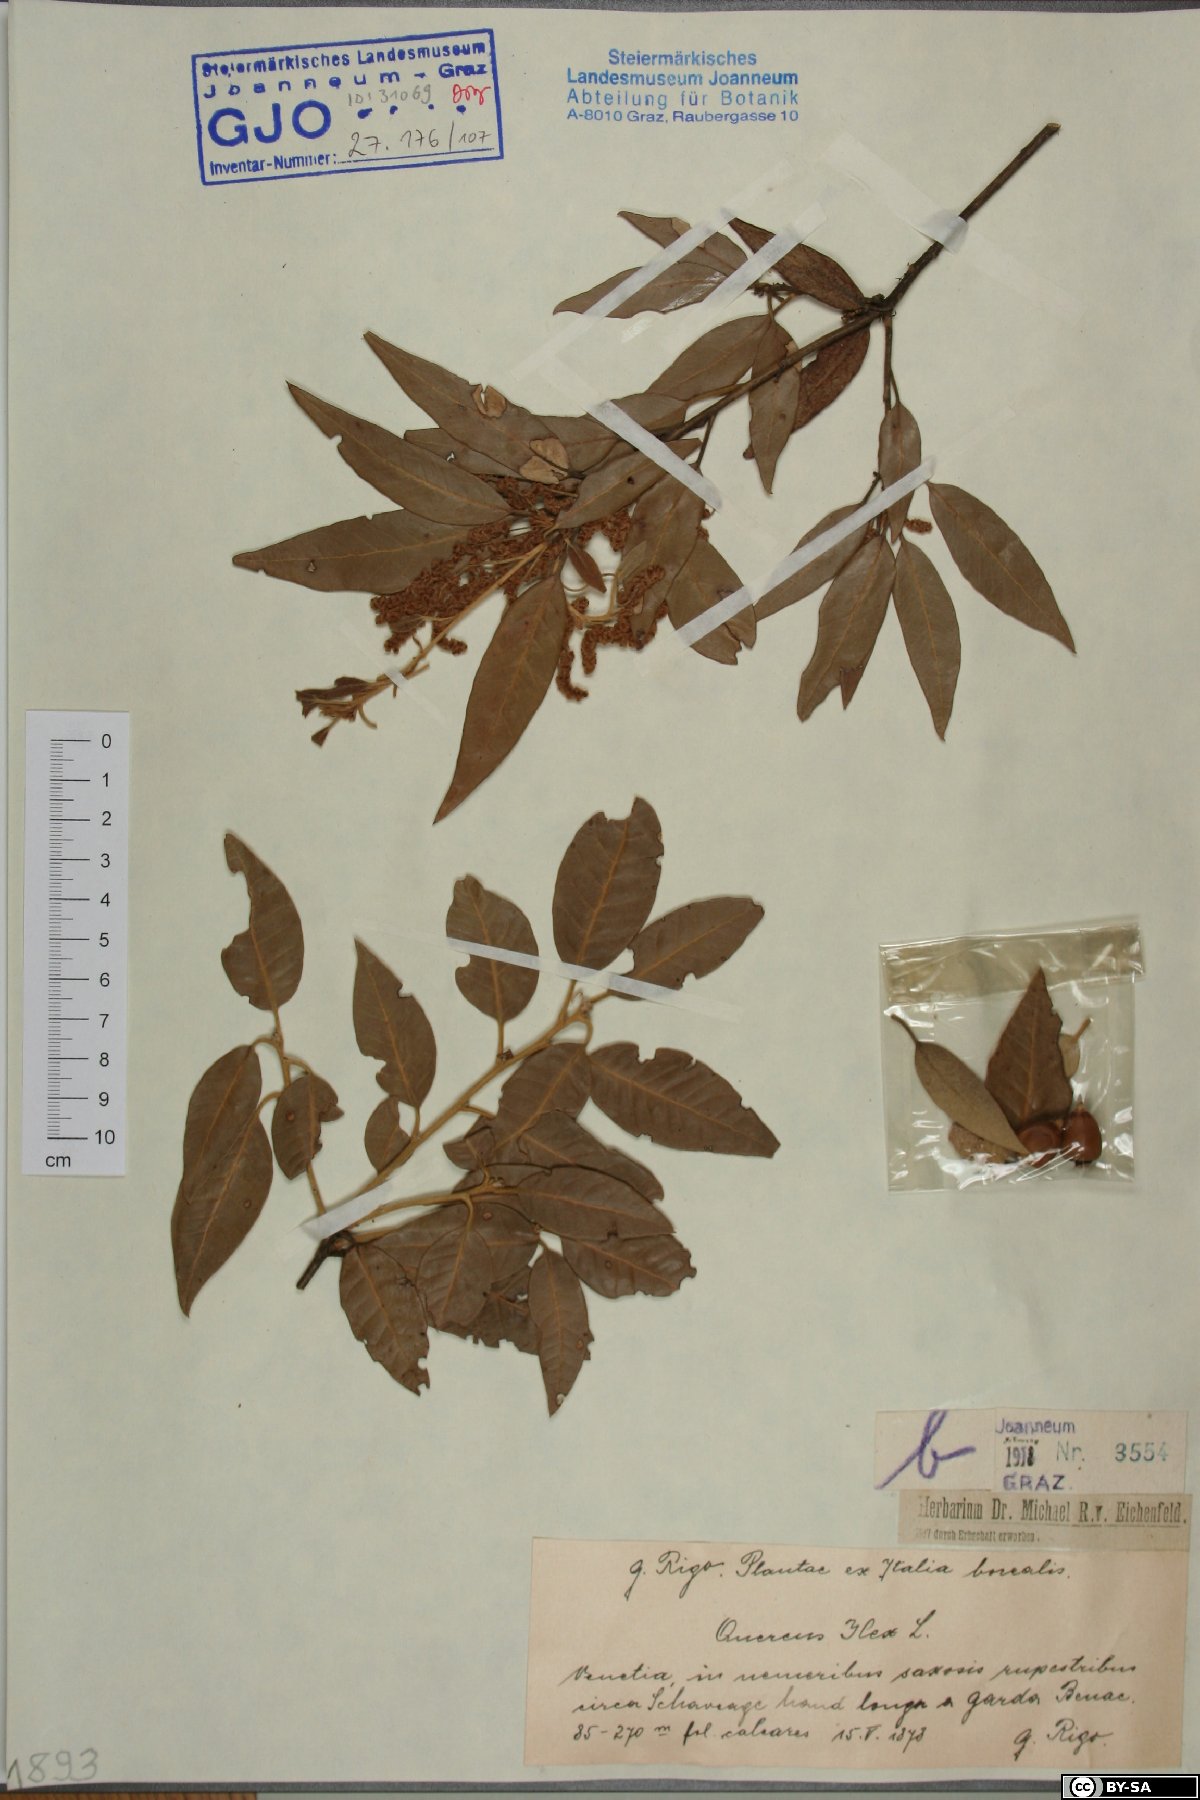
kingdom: Plantae
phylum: Tracheophyta
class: Magnoliopsida
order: Fagales
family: Fagaceae
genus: Quercus
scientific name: Quercus ilex
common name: Evergreen oak
